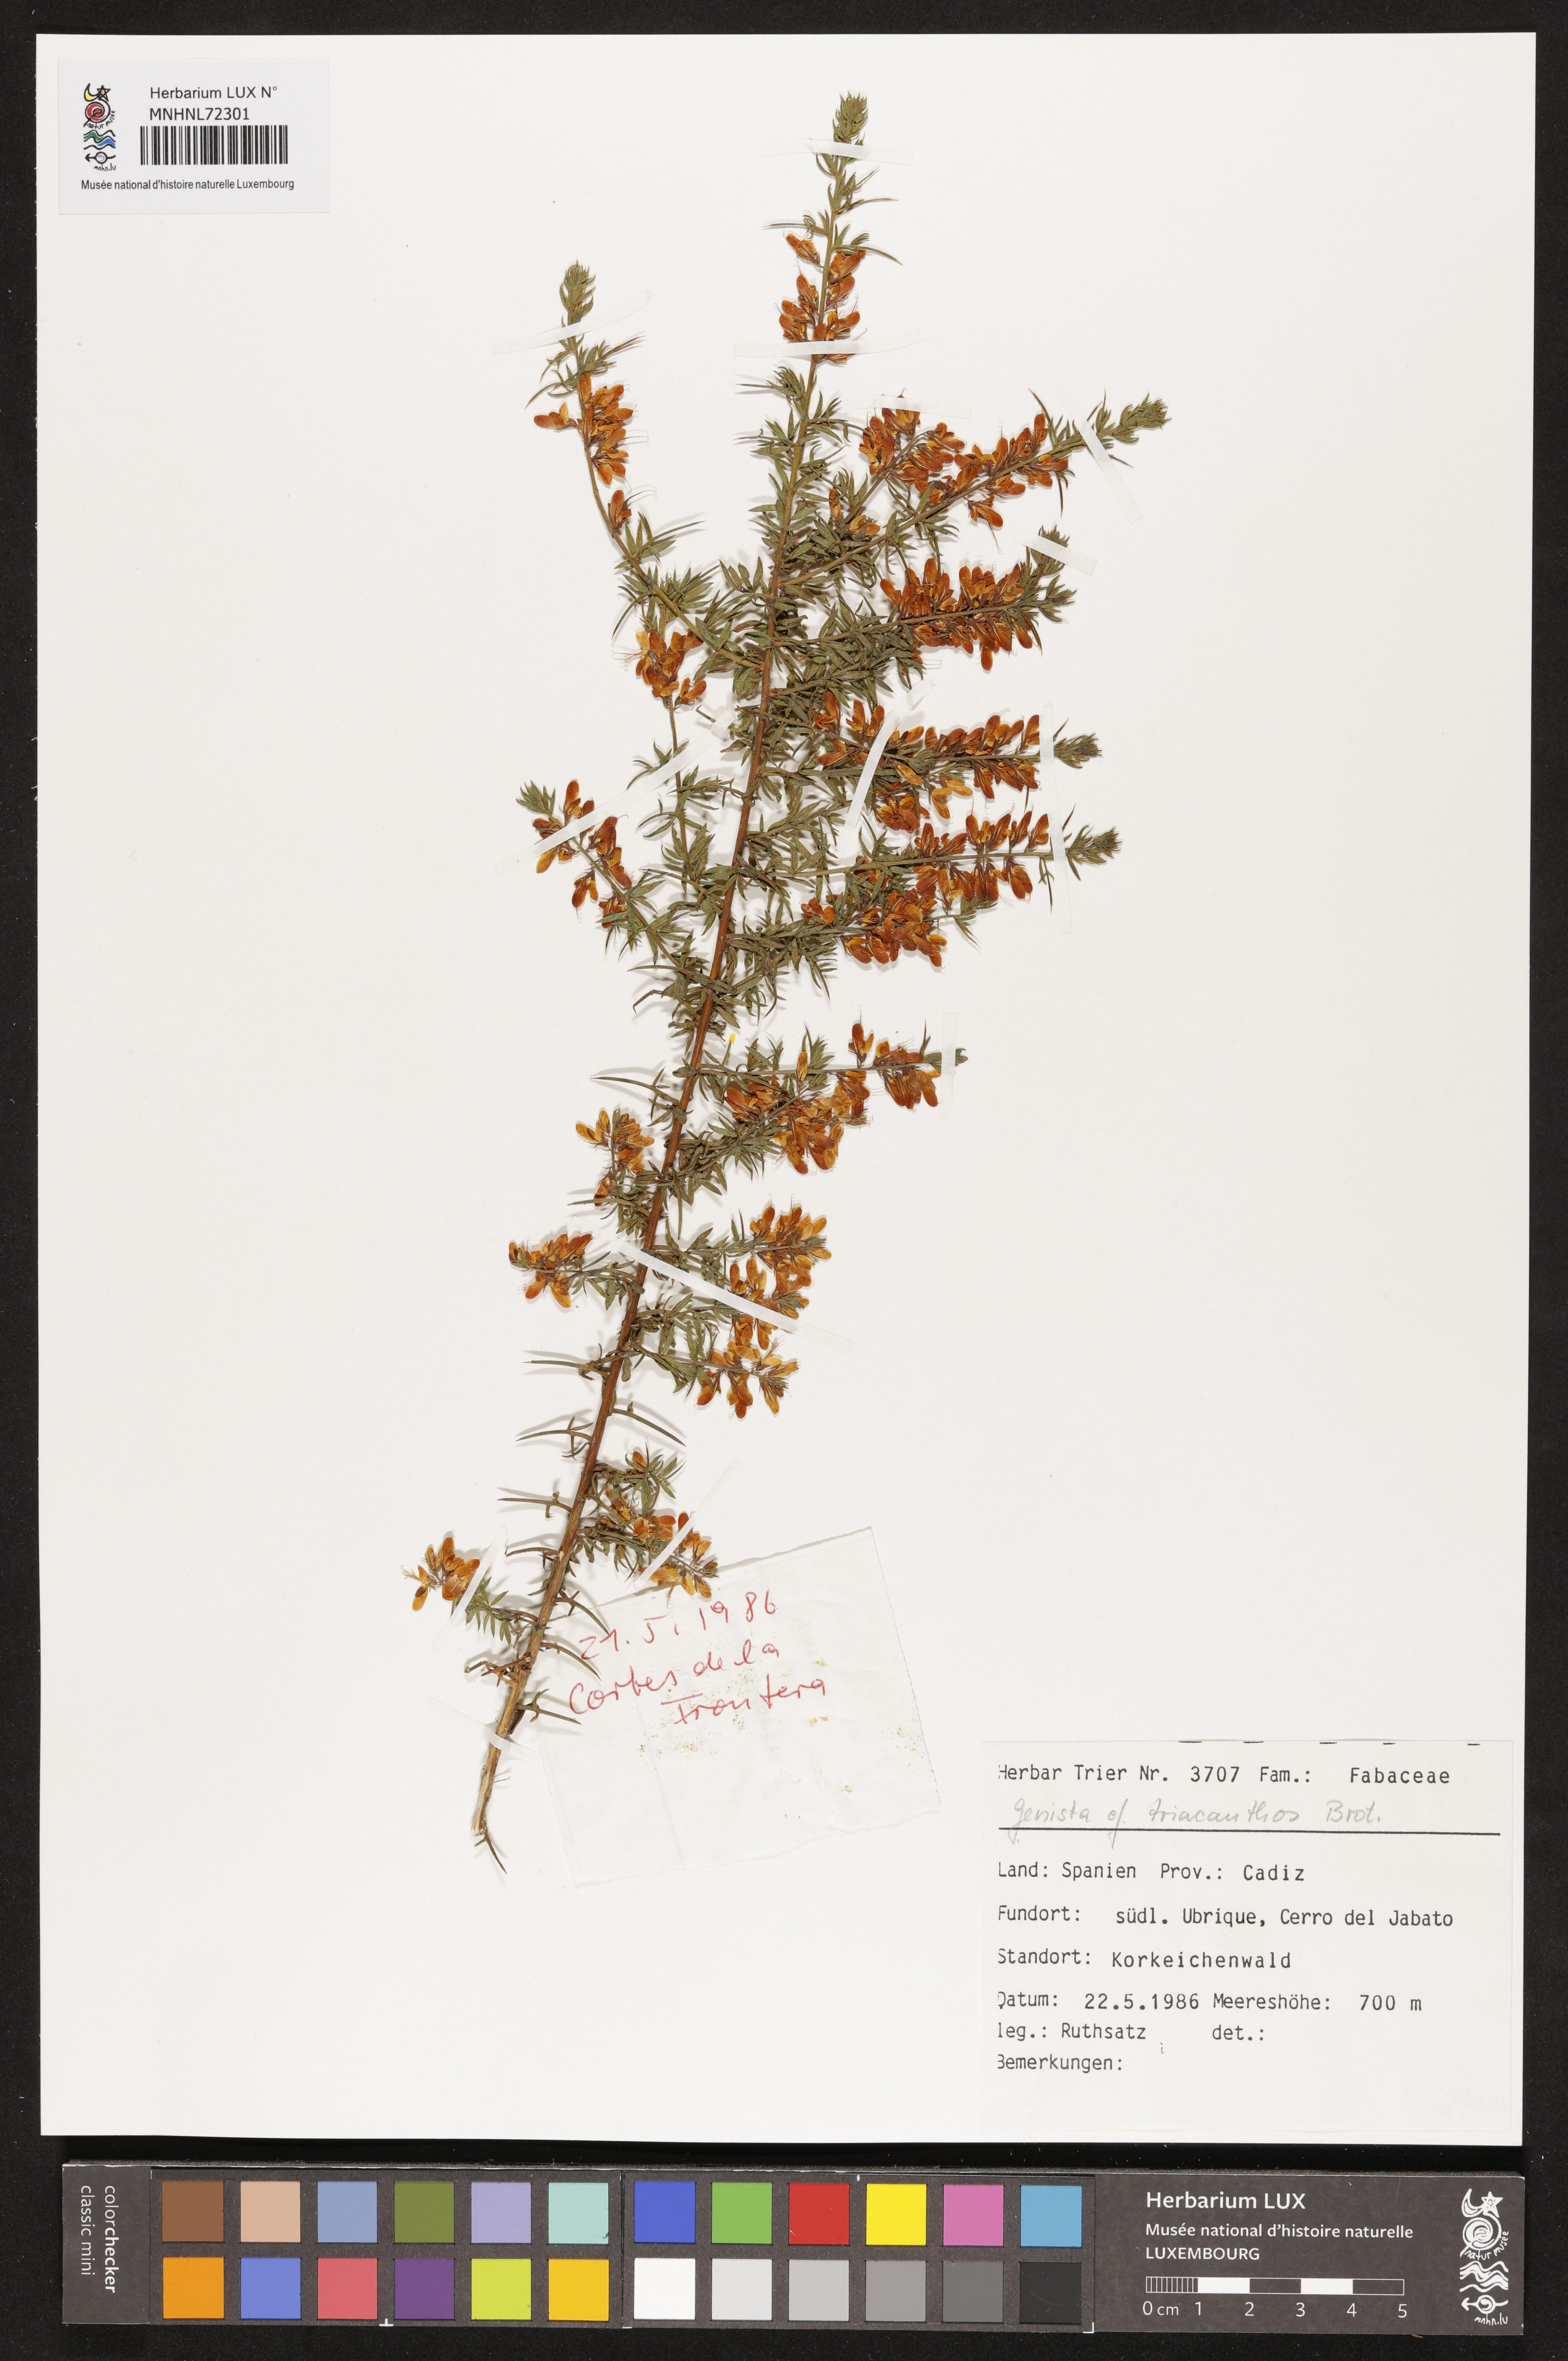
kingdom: Plantae
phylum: Tracheophyta
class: Magnoliopsida
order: Fabales
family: Fabaceae
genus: Genista
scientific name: Genista triacanthos
